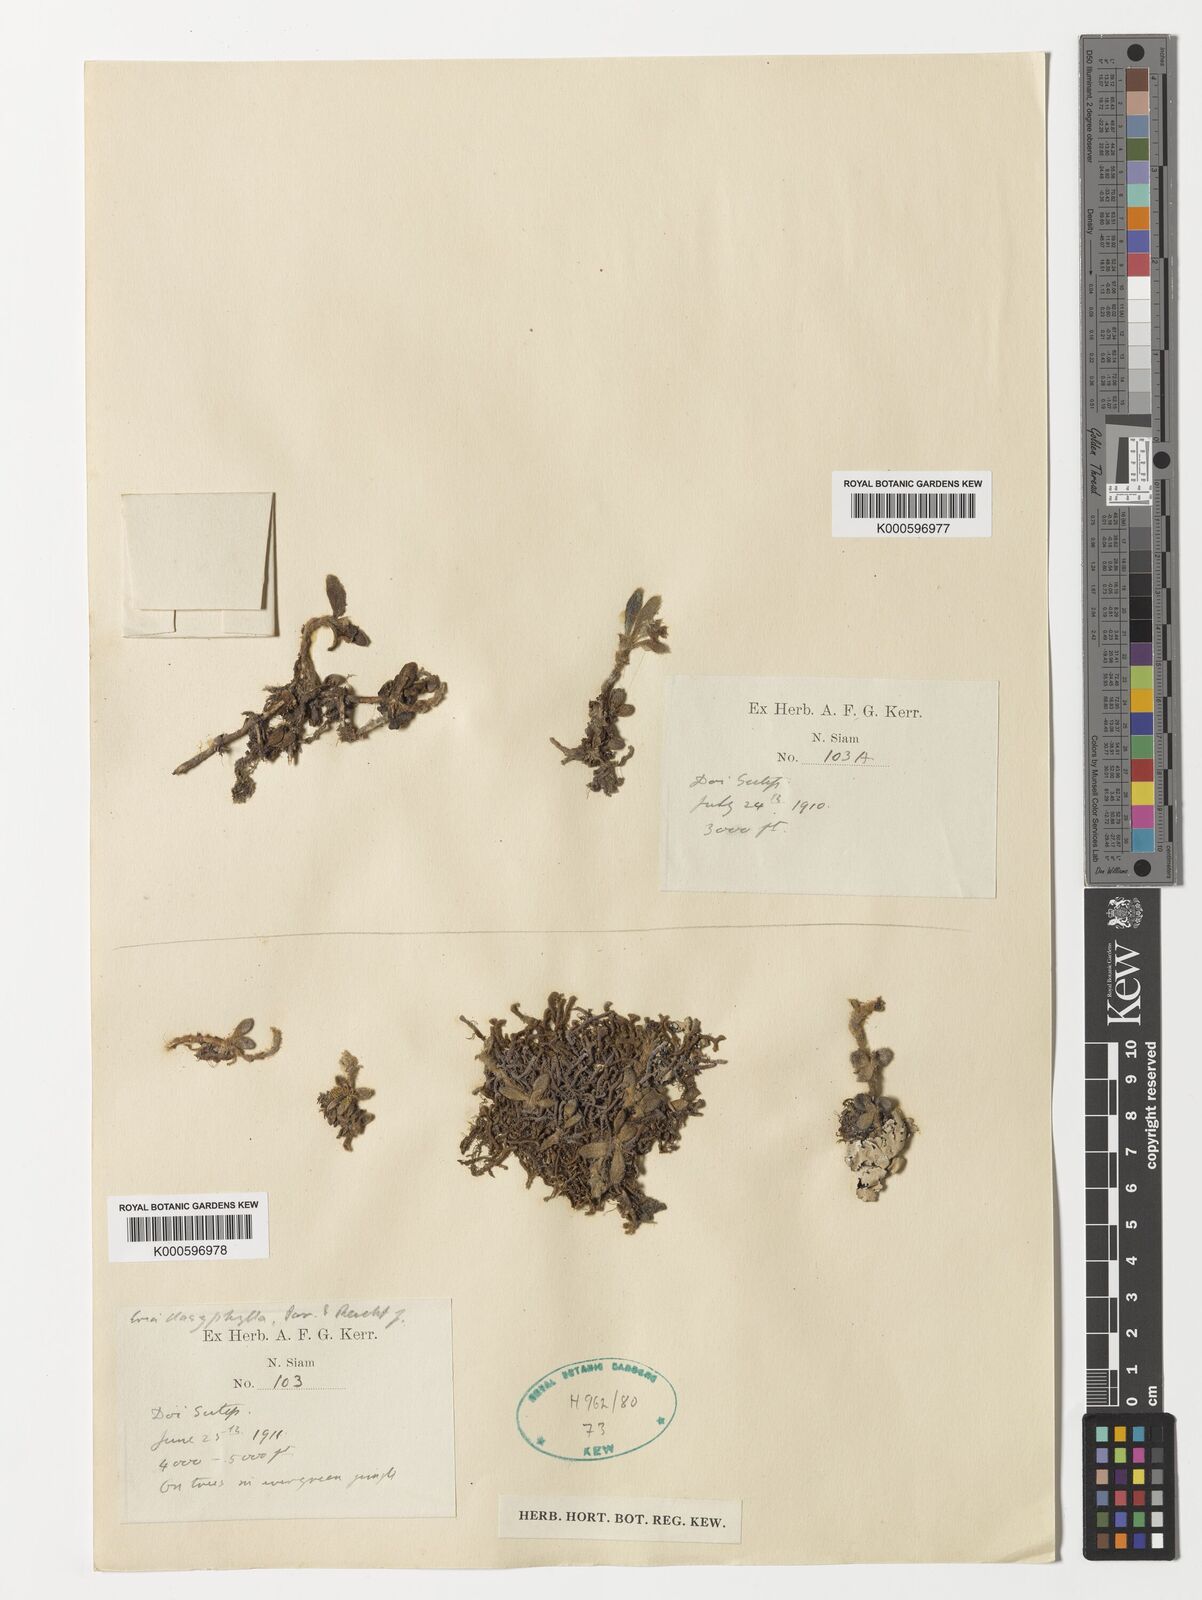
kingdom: Plantae
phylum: Tracheophyta
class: Liliopsida
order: Asparagales
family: Orchidaceae
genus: Trichotosia
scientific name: Trichotosia dasyphylla
